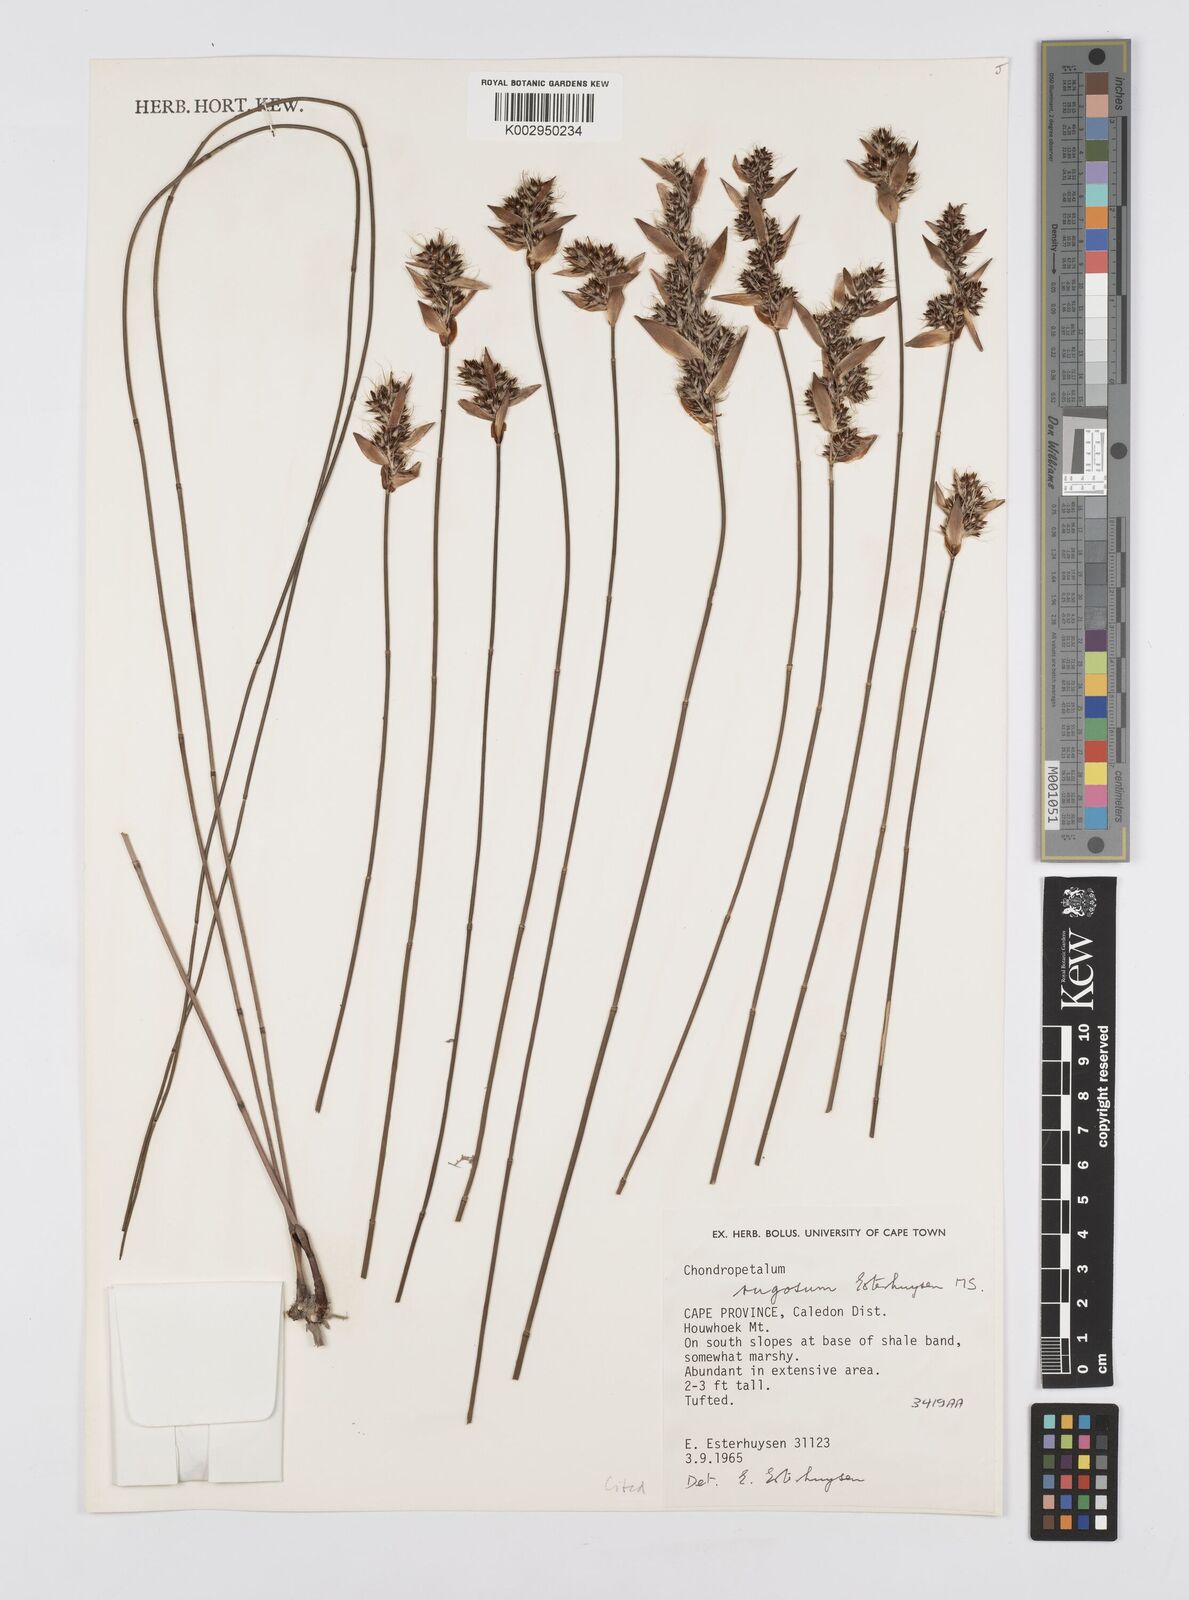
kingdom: Plantae
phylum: Tracheophyta
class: Liliopsida
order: Poales
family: Restionaceae
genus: Askidiosperma
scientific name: Askidiosperma rugosum
